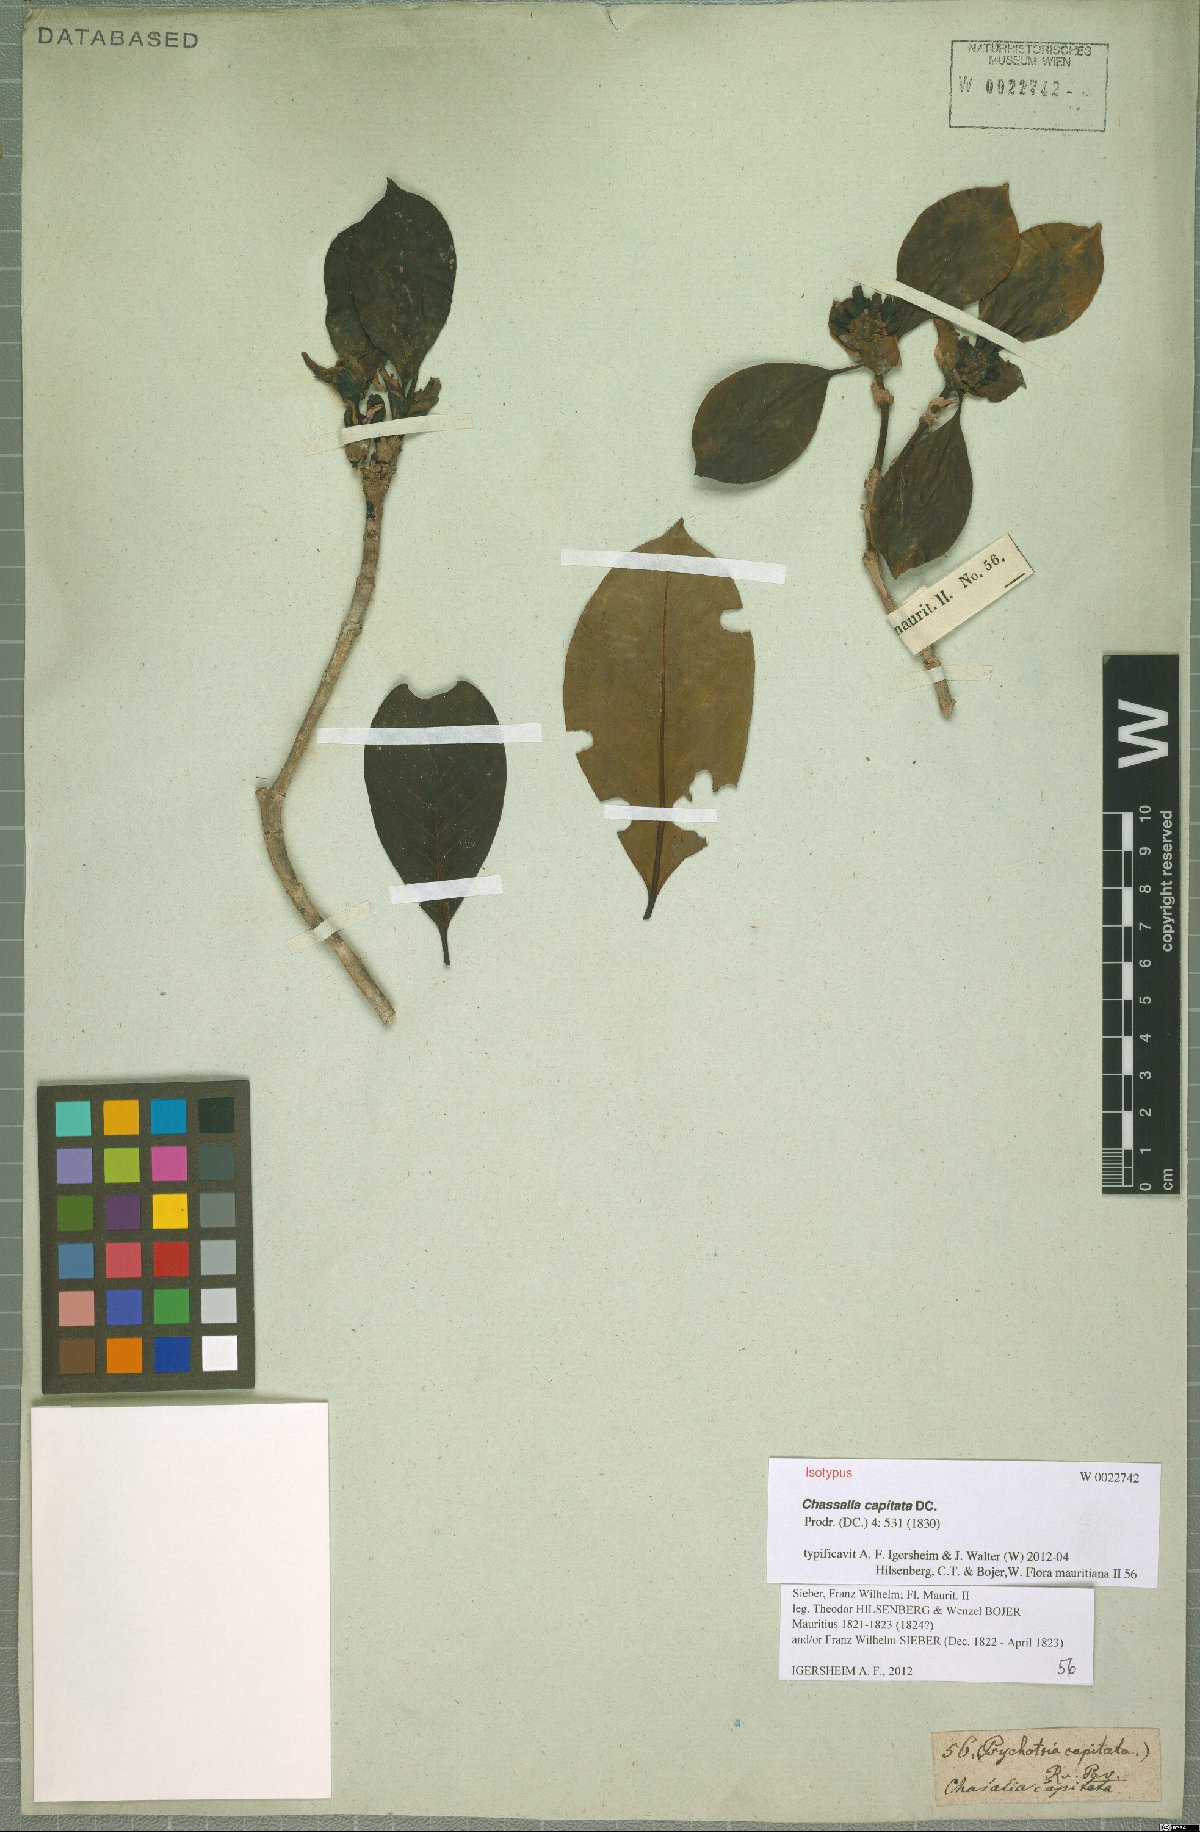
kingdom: Plantae
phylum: Tracheophyta
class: Magnoliopsida
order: Gentianales
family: Rubiaceae
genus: Chassalia
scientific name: Chassalia capitata
